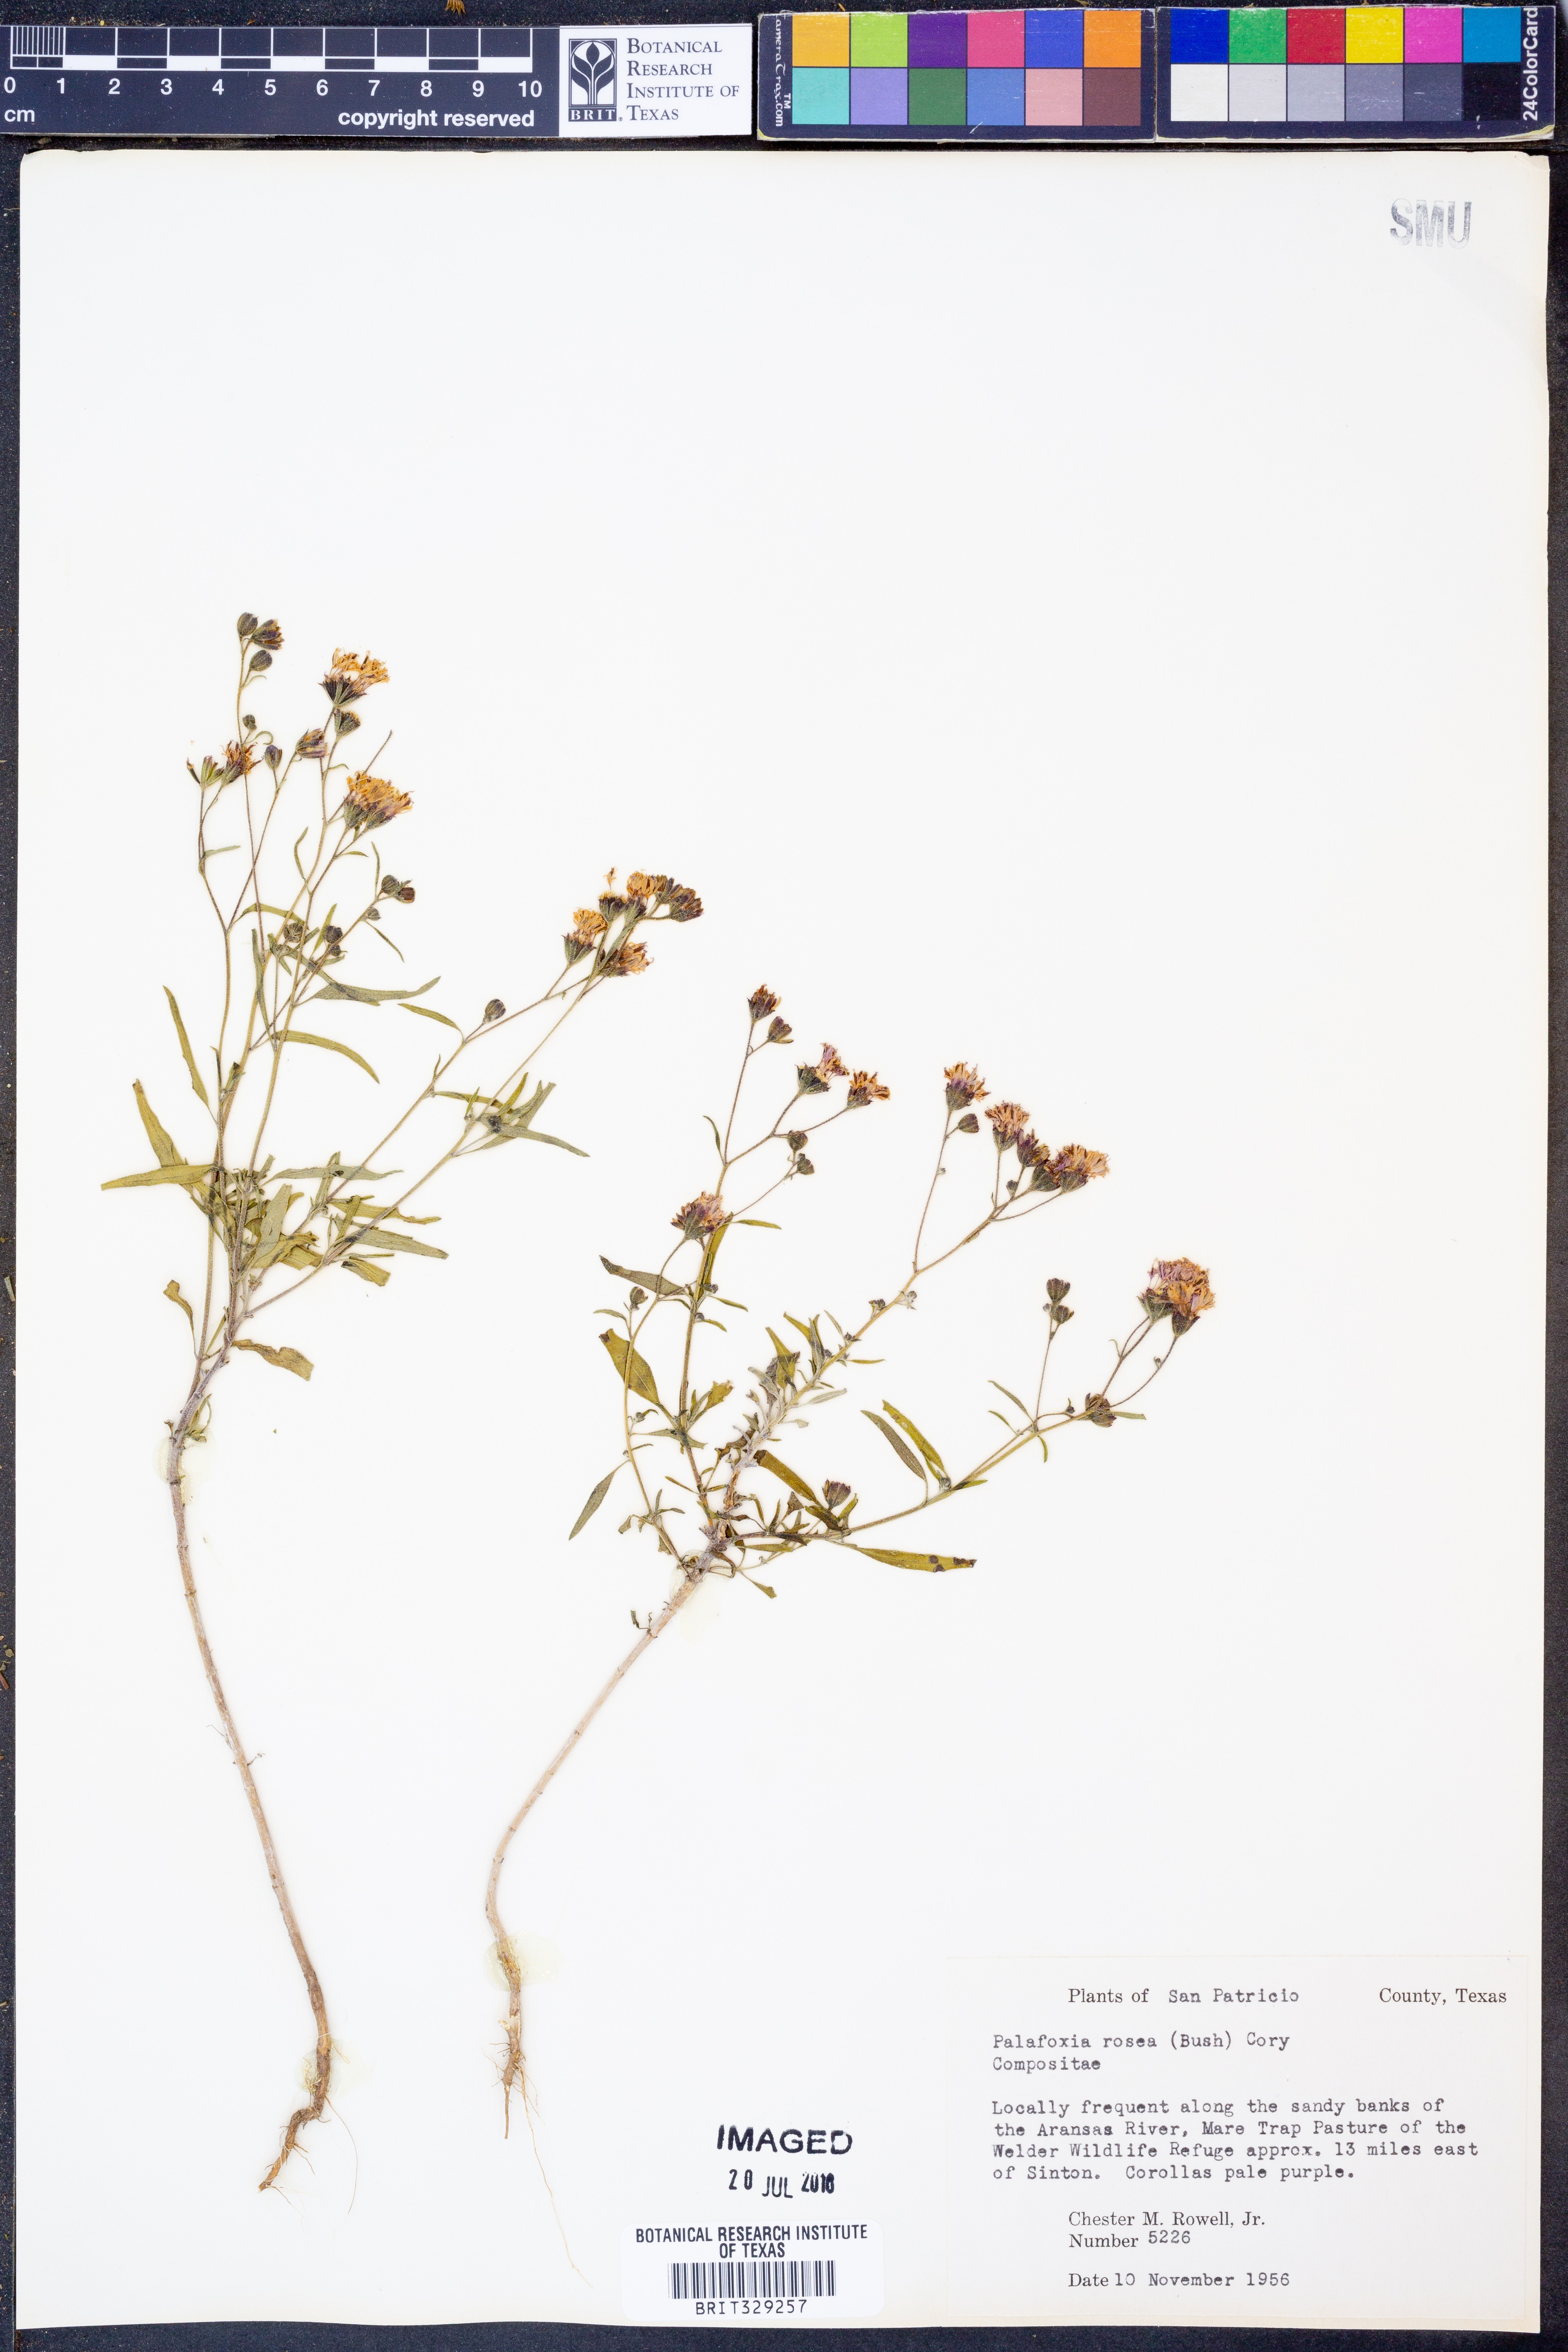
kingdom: Plantae
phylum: Tracheophyta
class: Magnoliopsida
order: Asterales
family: Asteraceae
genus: Palafoxia
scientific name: Palafoxia rosea
